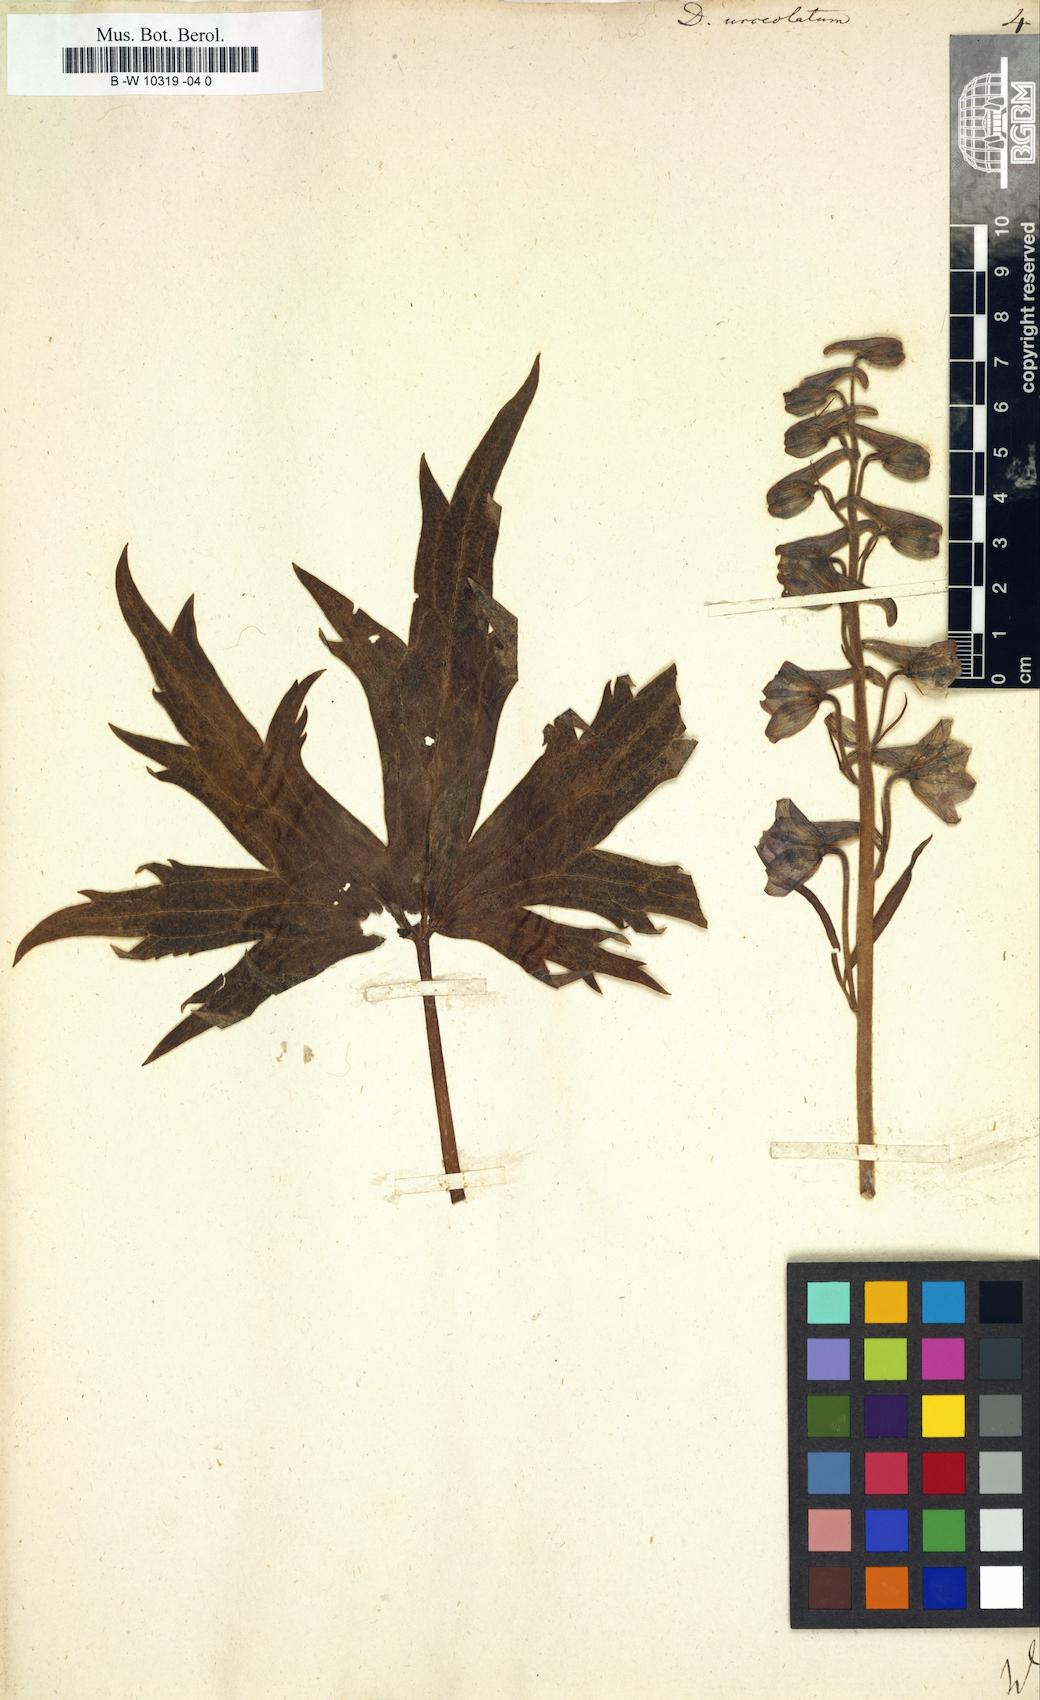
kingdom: Plantae
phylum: Tracheophyta
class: Magnoliopsida
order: Ranunculales
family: Ranunculaceae
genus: Delphinium
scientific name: Delphinium elatum
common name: Candle larkspur
